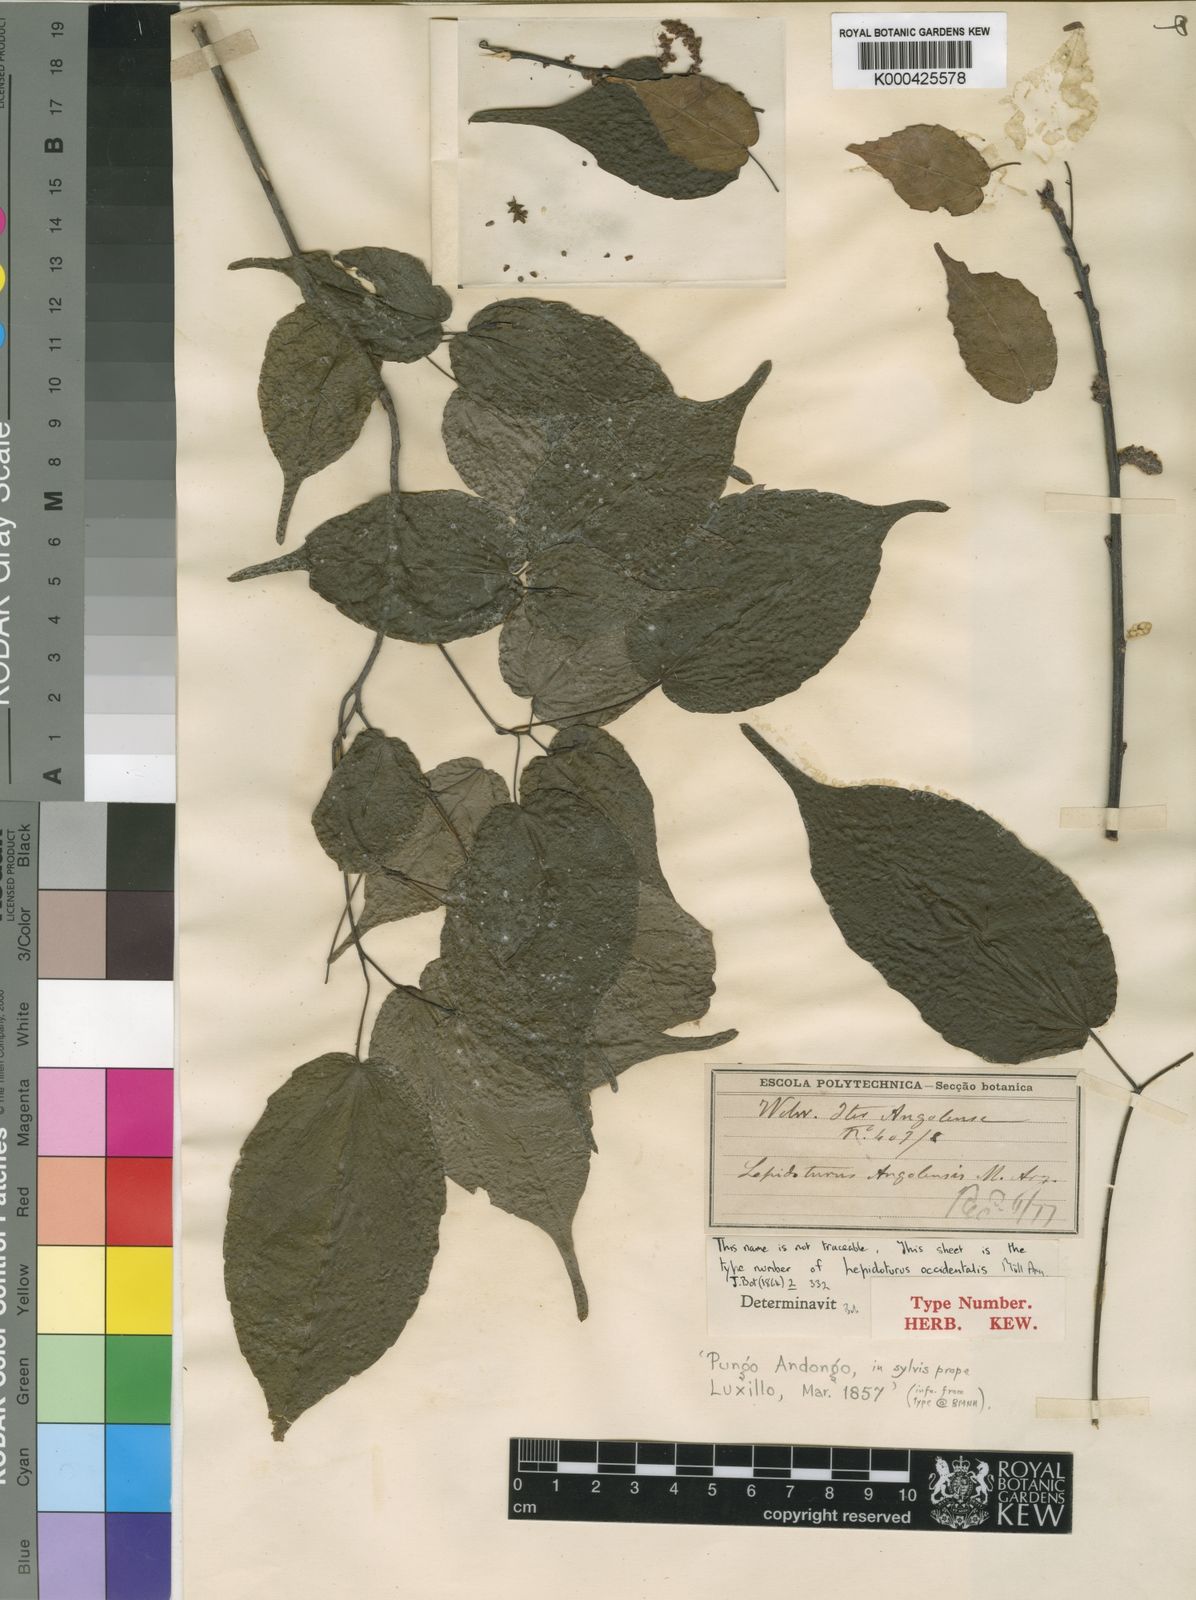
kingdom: Plantae
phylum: Tracheophyta
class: Magnoliopsida
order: Malpighiales
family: Euphorbiaceae
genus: Alchornea
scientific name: Alchornea
